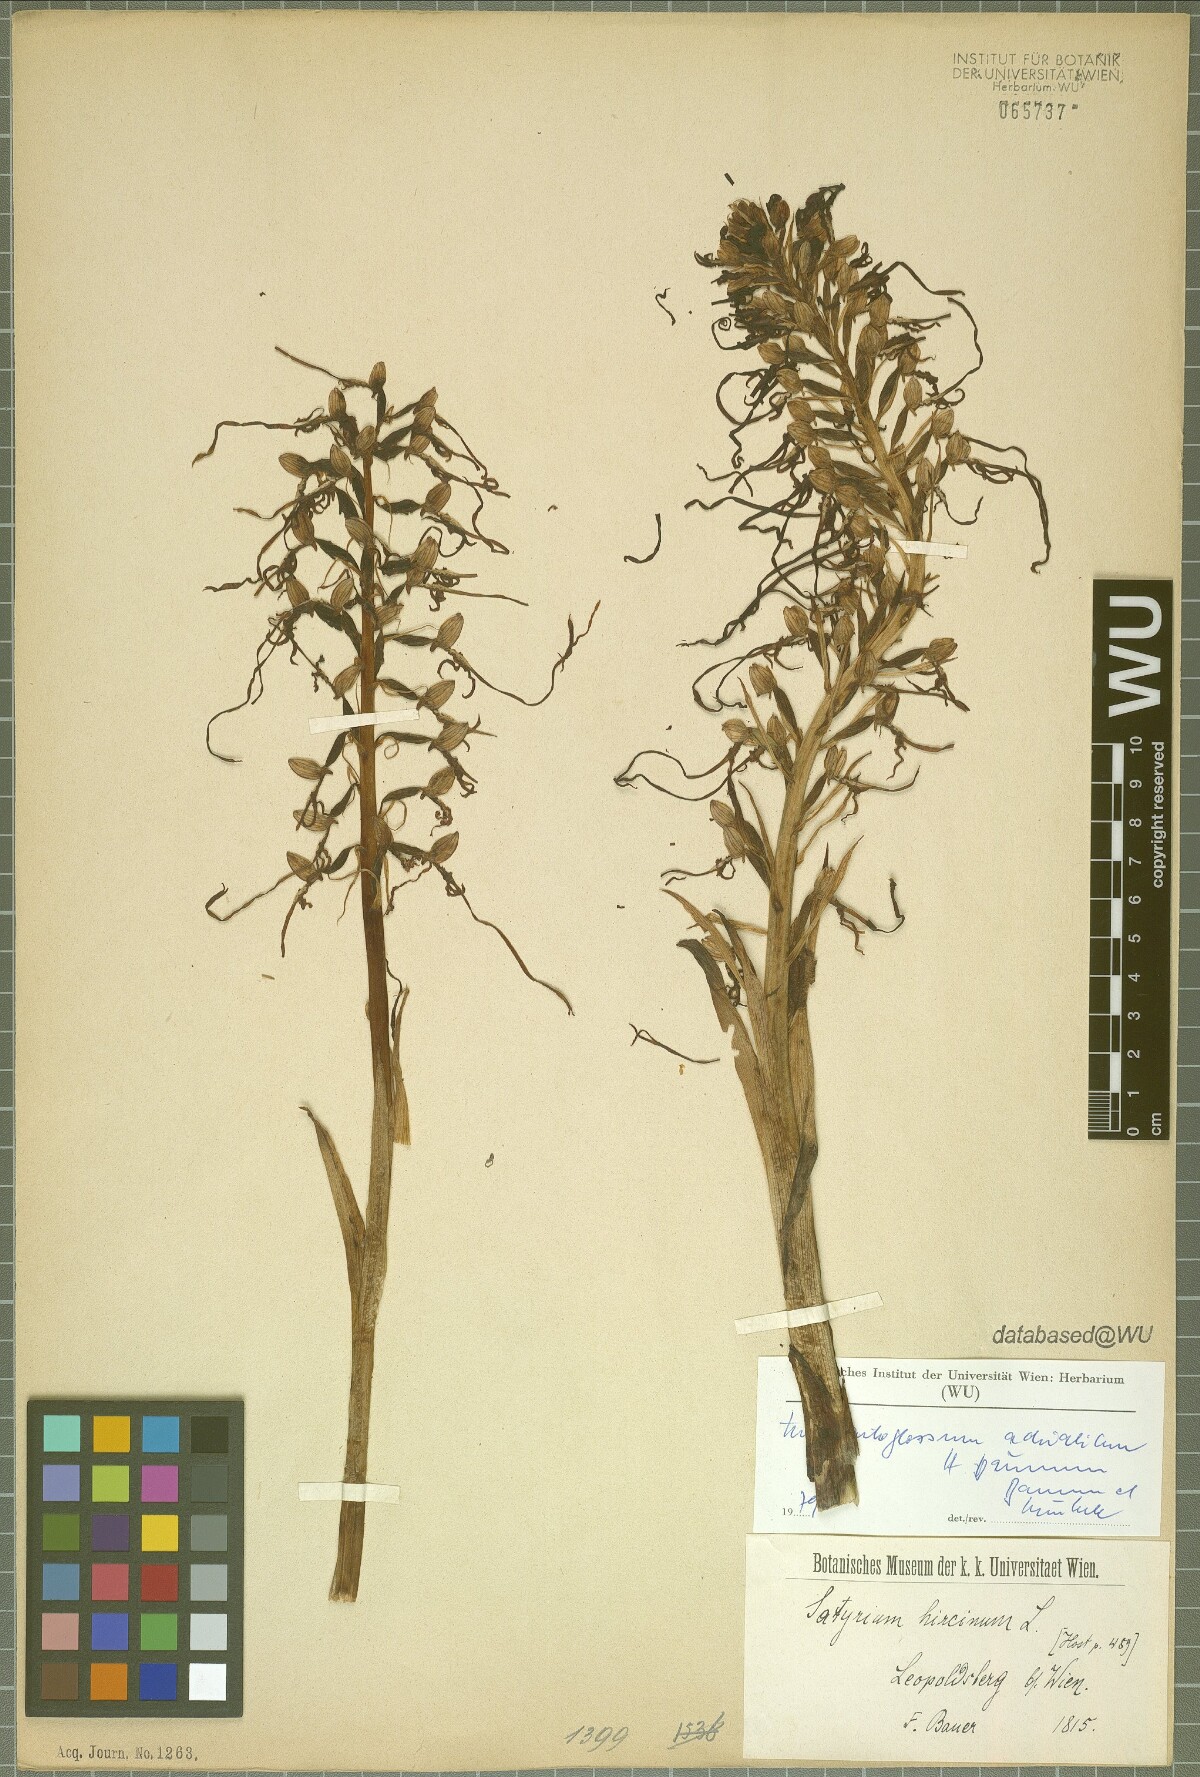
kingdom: Plantae
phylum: Tracheophyta
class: Liliopsida
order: Asparagales
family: Orchidaceae
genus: Himantoglossum
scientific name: Himantoglossum adriaticum
